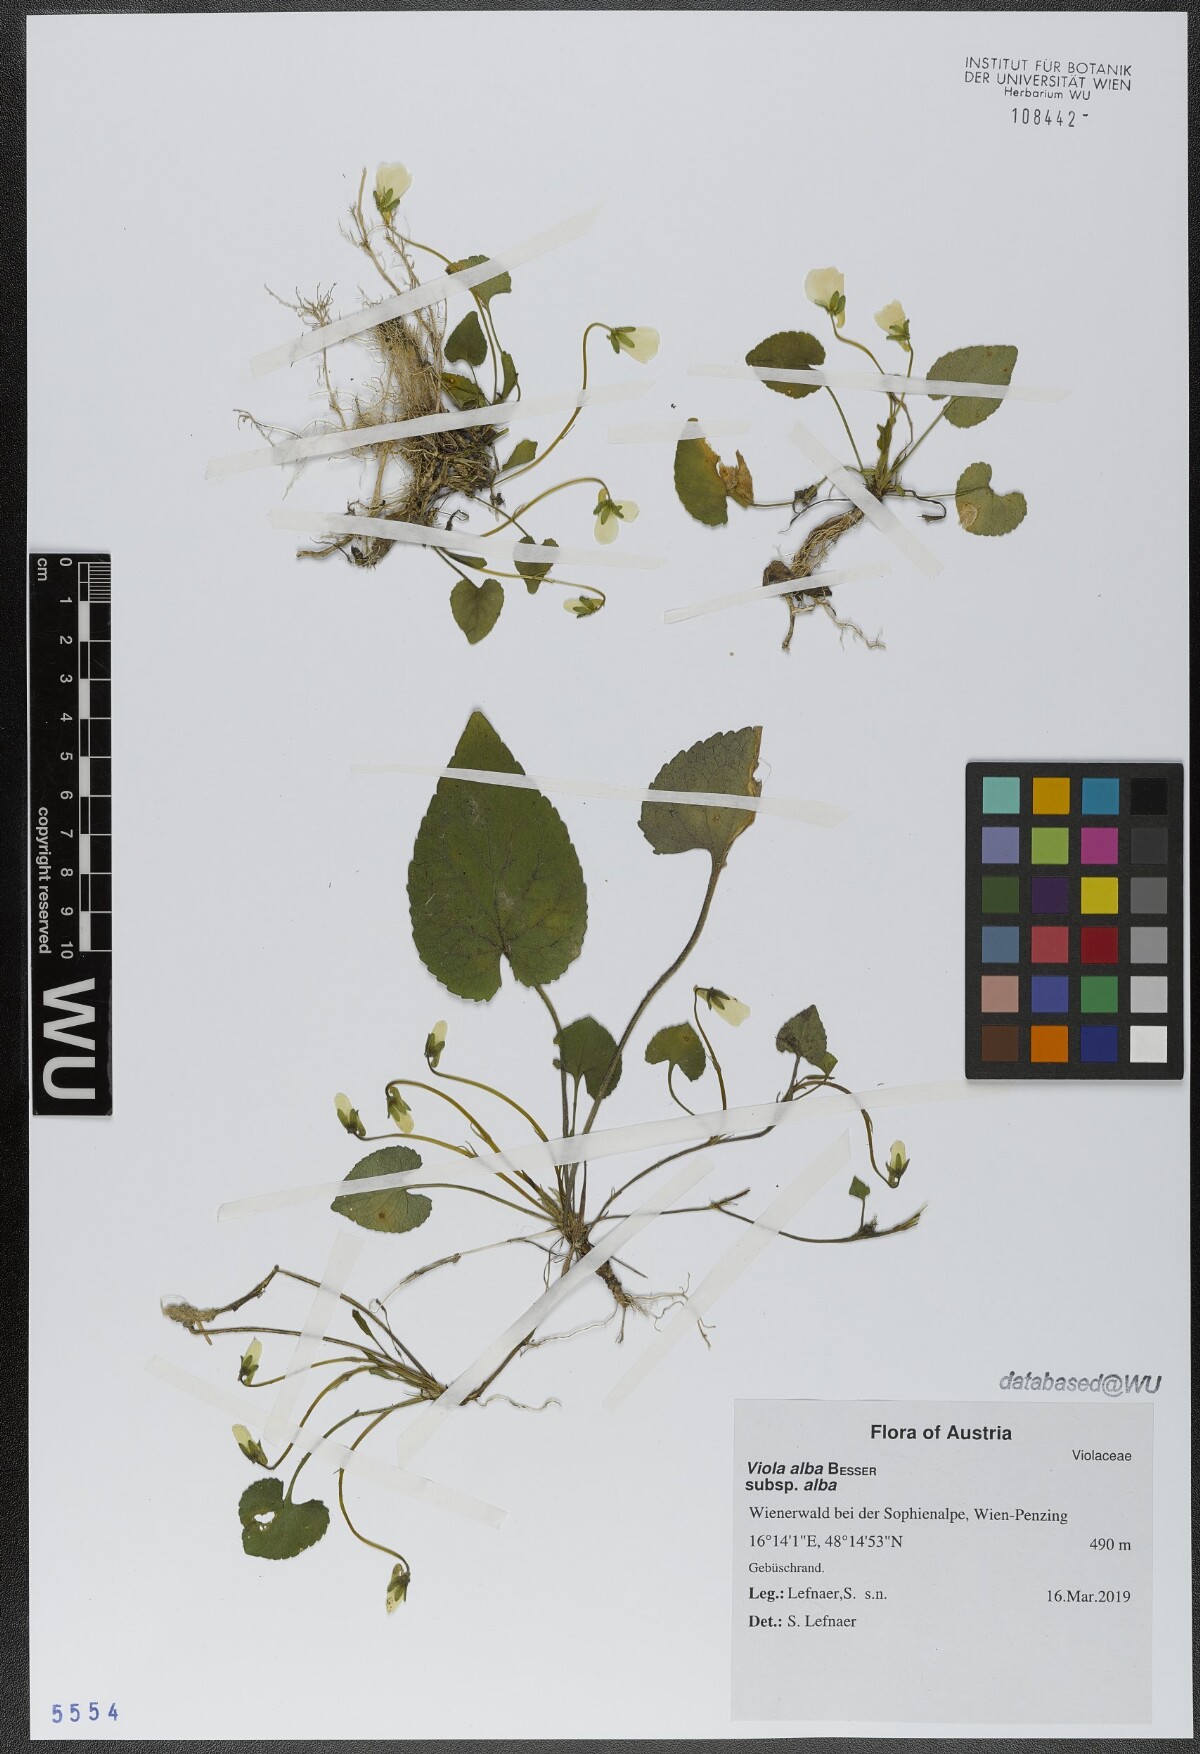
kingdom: Plantae
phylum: Tracheophyta
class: Magnoliopsida
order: Malpighiales
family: Violaceae
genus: Viola
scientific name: Viola alba
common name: White violet
